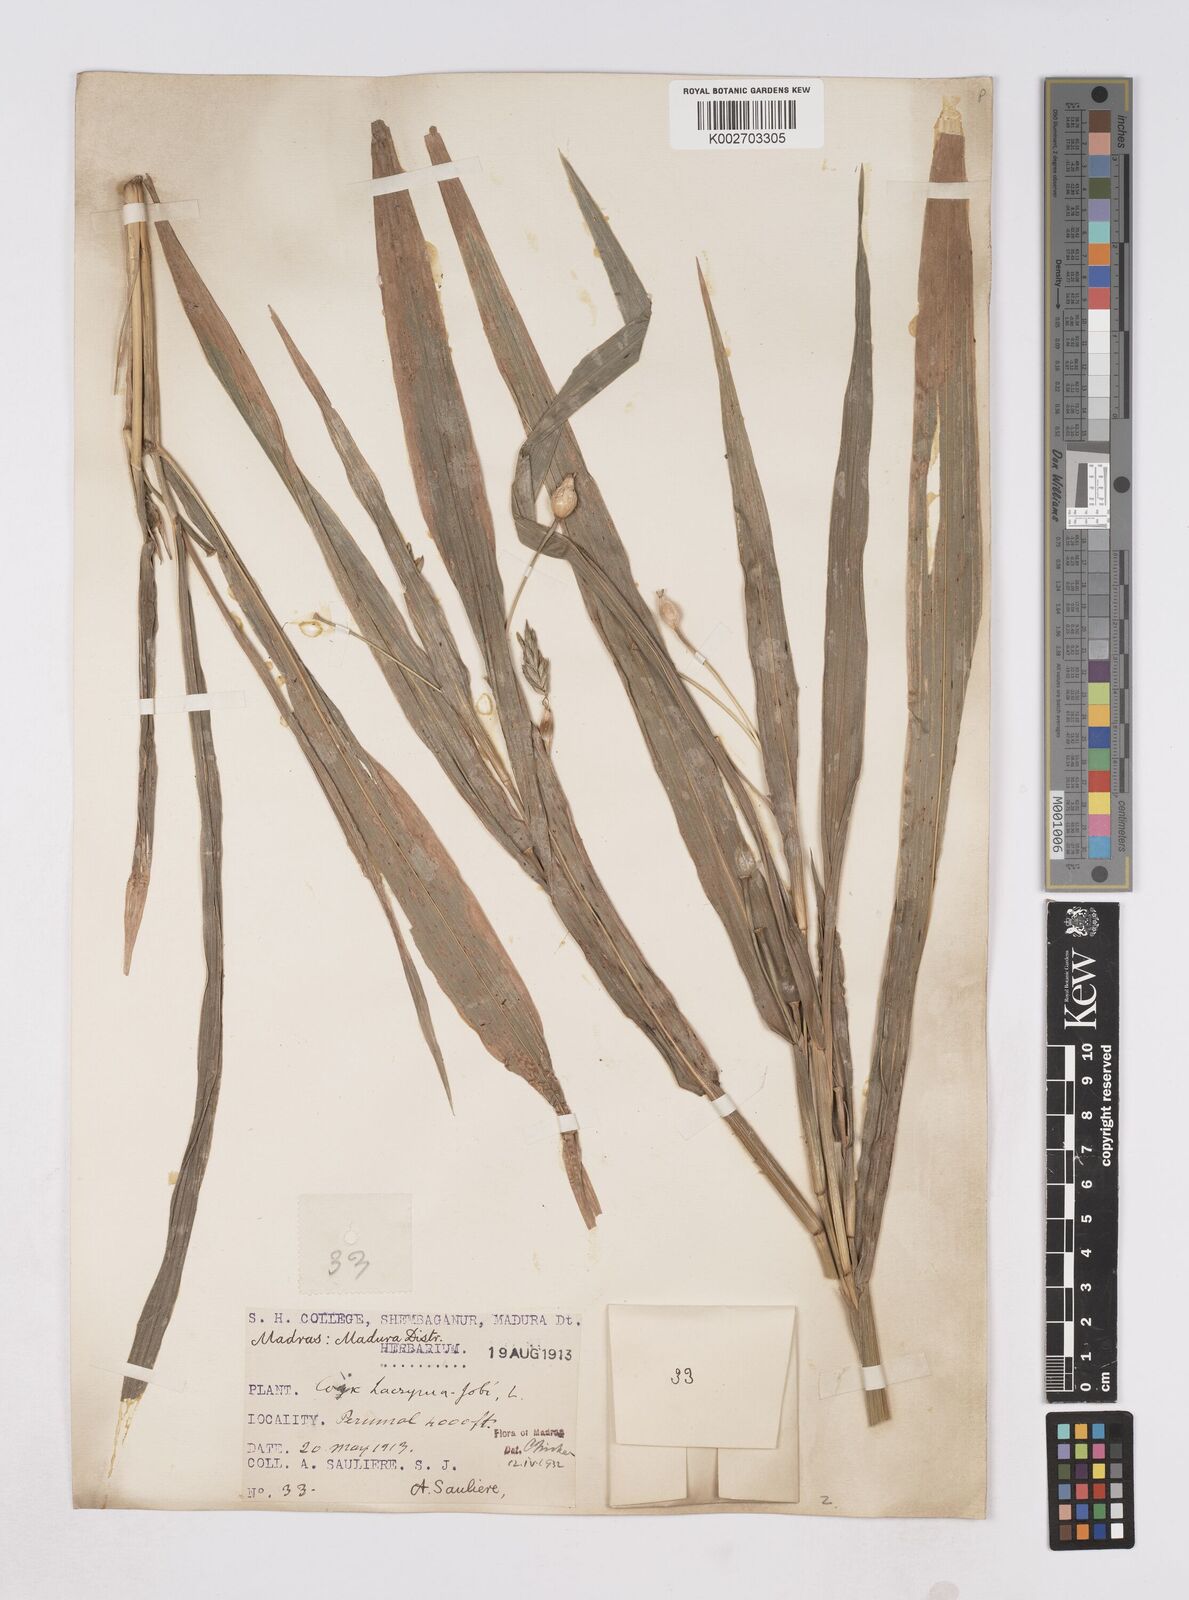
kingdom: Plantae
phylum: Tracheophyta
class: Liliopsida
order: Poales
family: Poaceae
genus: Polytoca
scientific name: Polytoca gigantea
